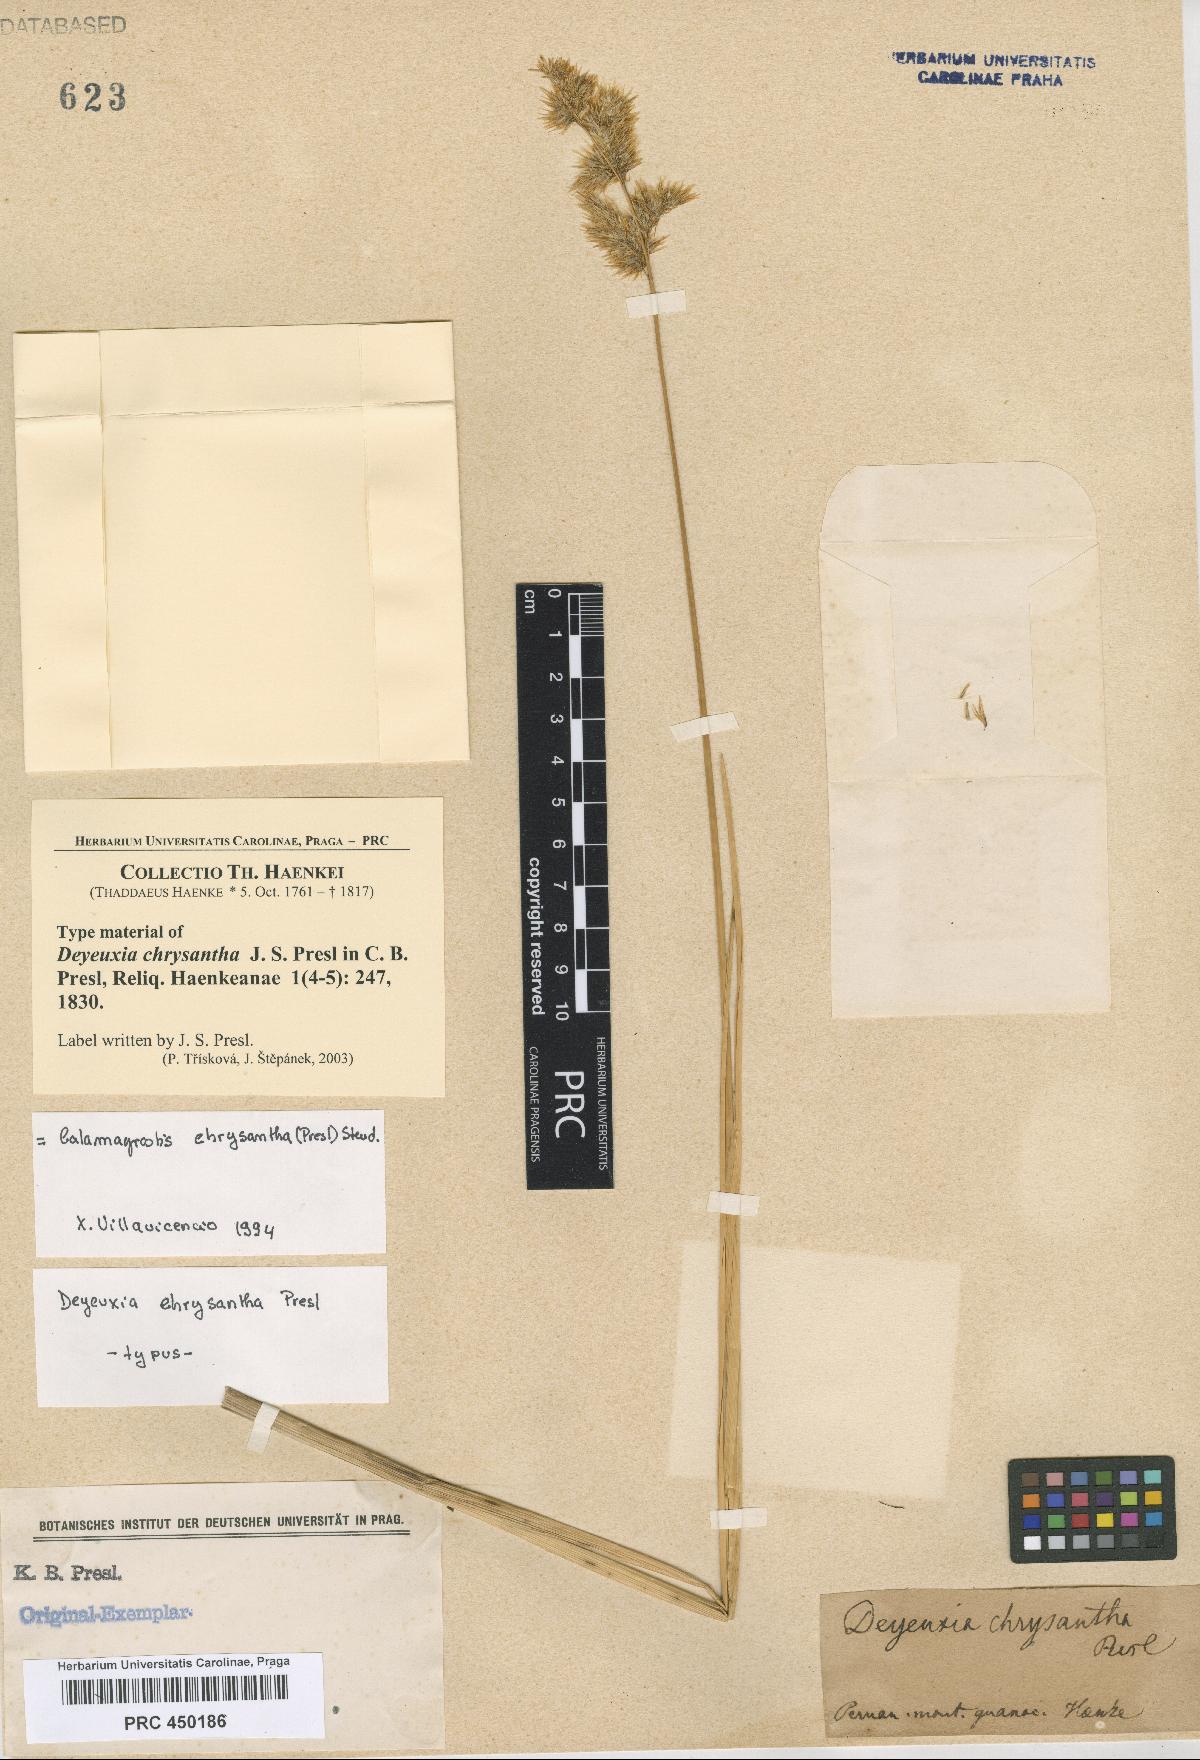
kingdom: Plantae
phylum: Tracheophyta
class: Liliopsida
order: Poales
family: Poaceae
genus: Deschampsia
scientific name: Deschampsia chrysantha
